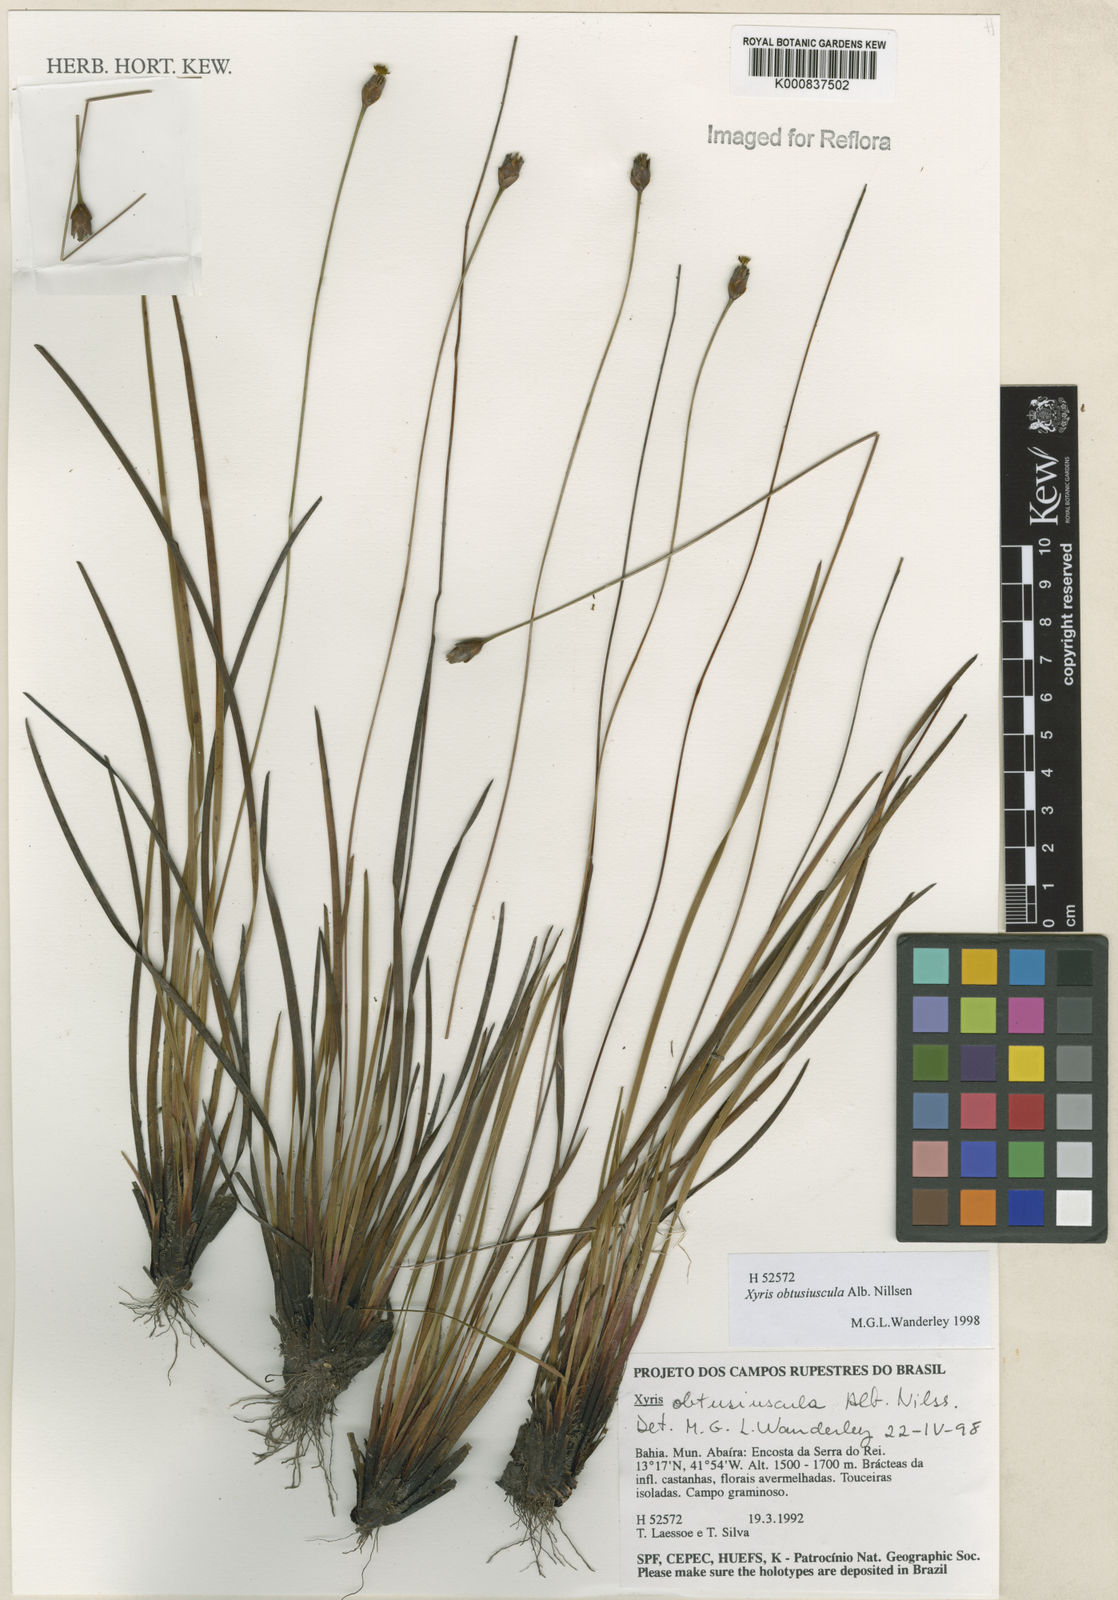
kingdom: Plantae
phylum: Tracheophyta
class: Liliopsida
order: Poales
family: Xyridaceae
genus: Xyris
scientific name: Xyris obtusiuscula
